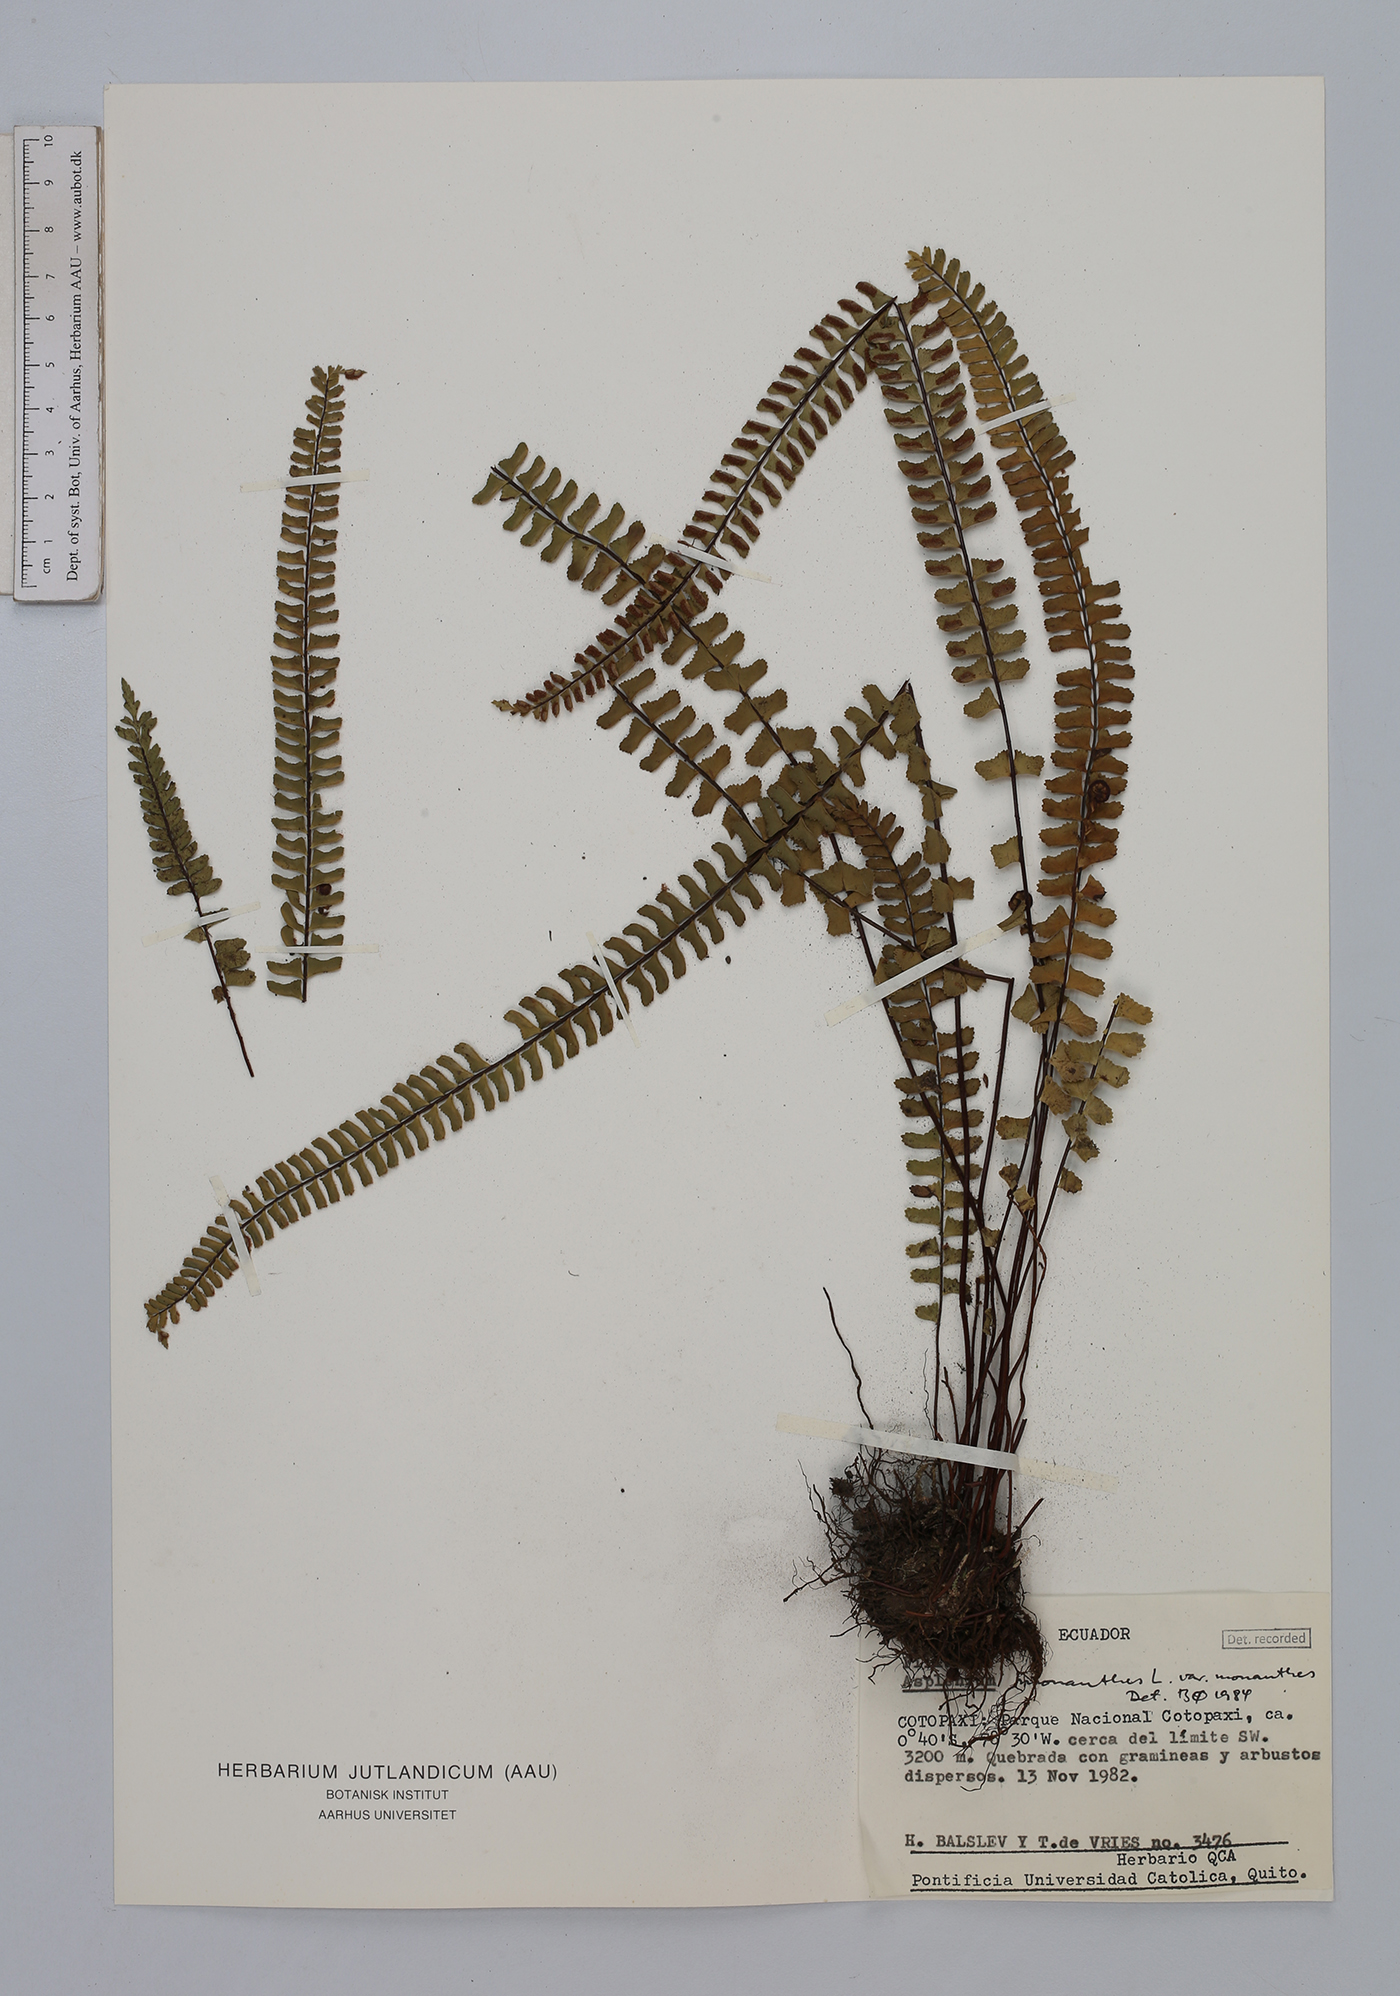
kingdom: Plantae
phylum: Tracheophyta
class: Polypodiopsida
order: Polypodiales
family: Aspleniaceae
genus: Asplenium
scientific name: Asplenium monanthes
